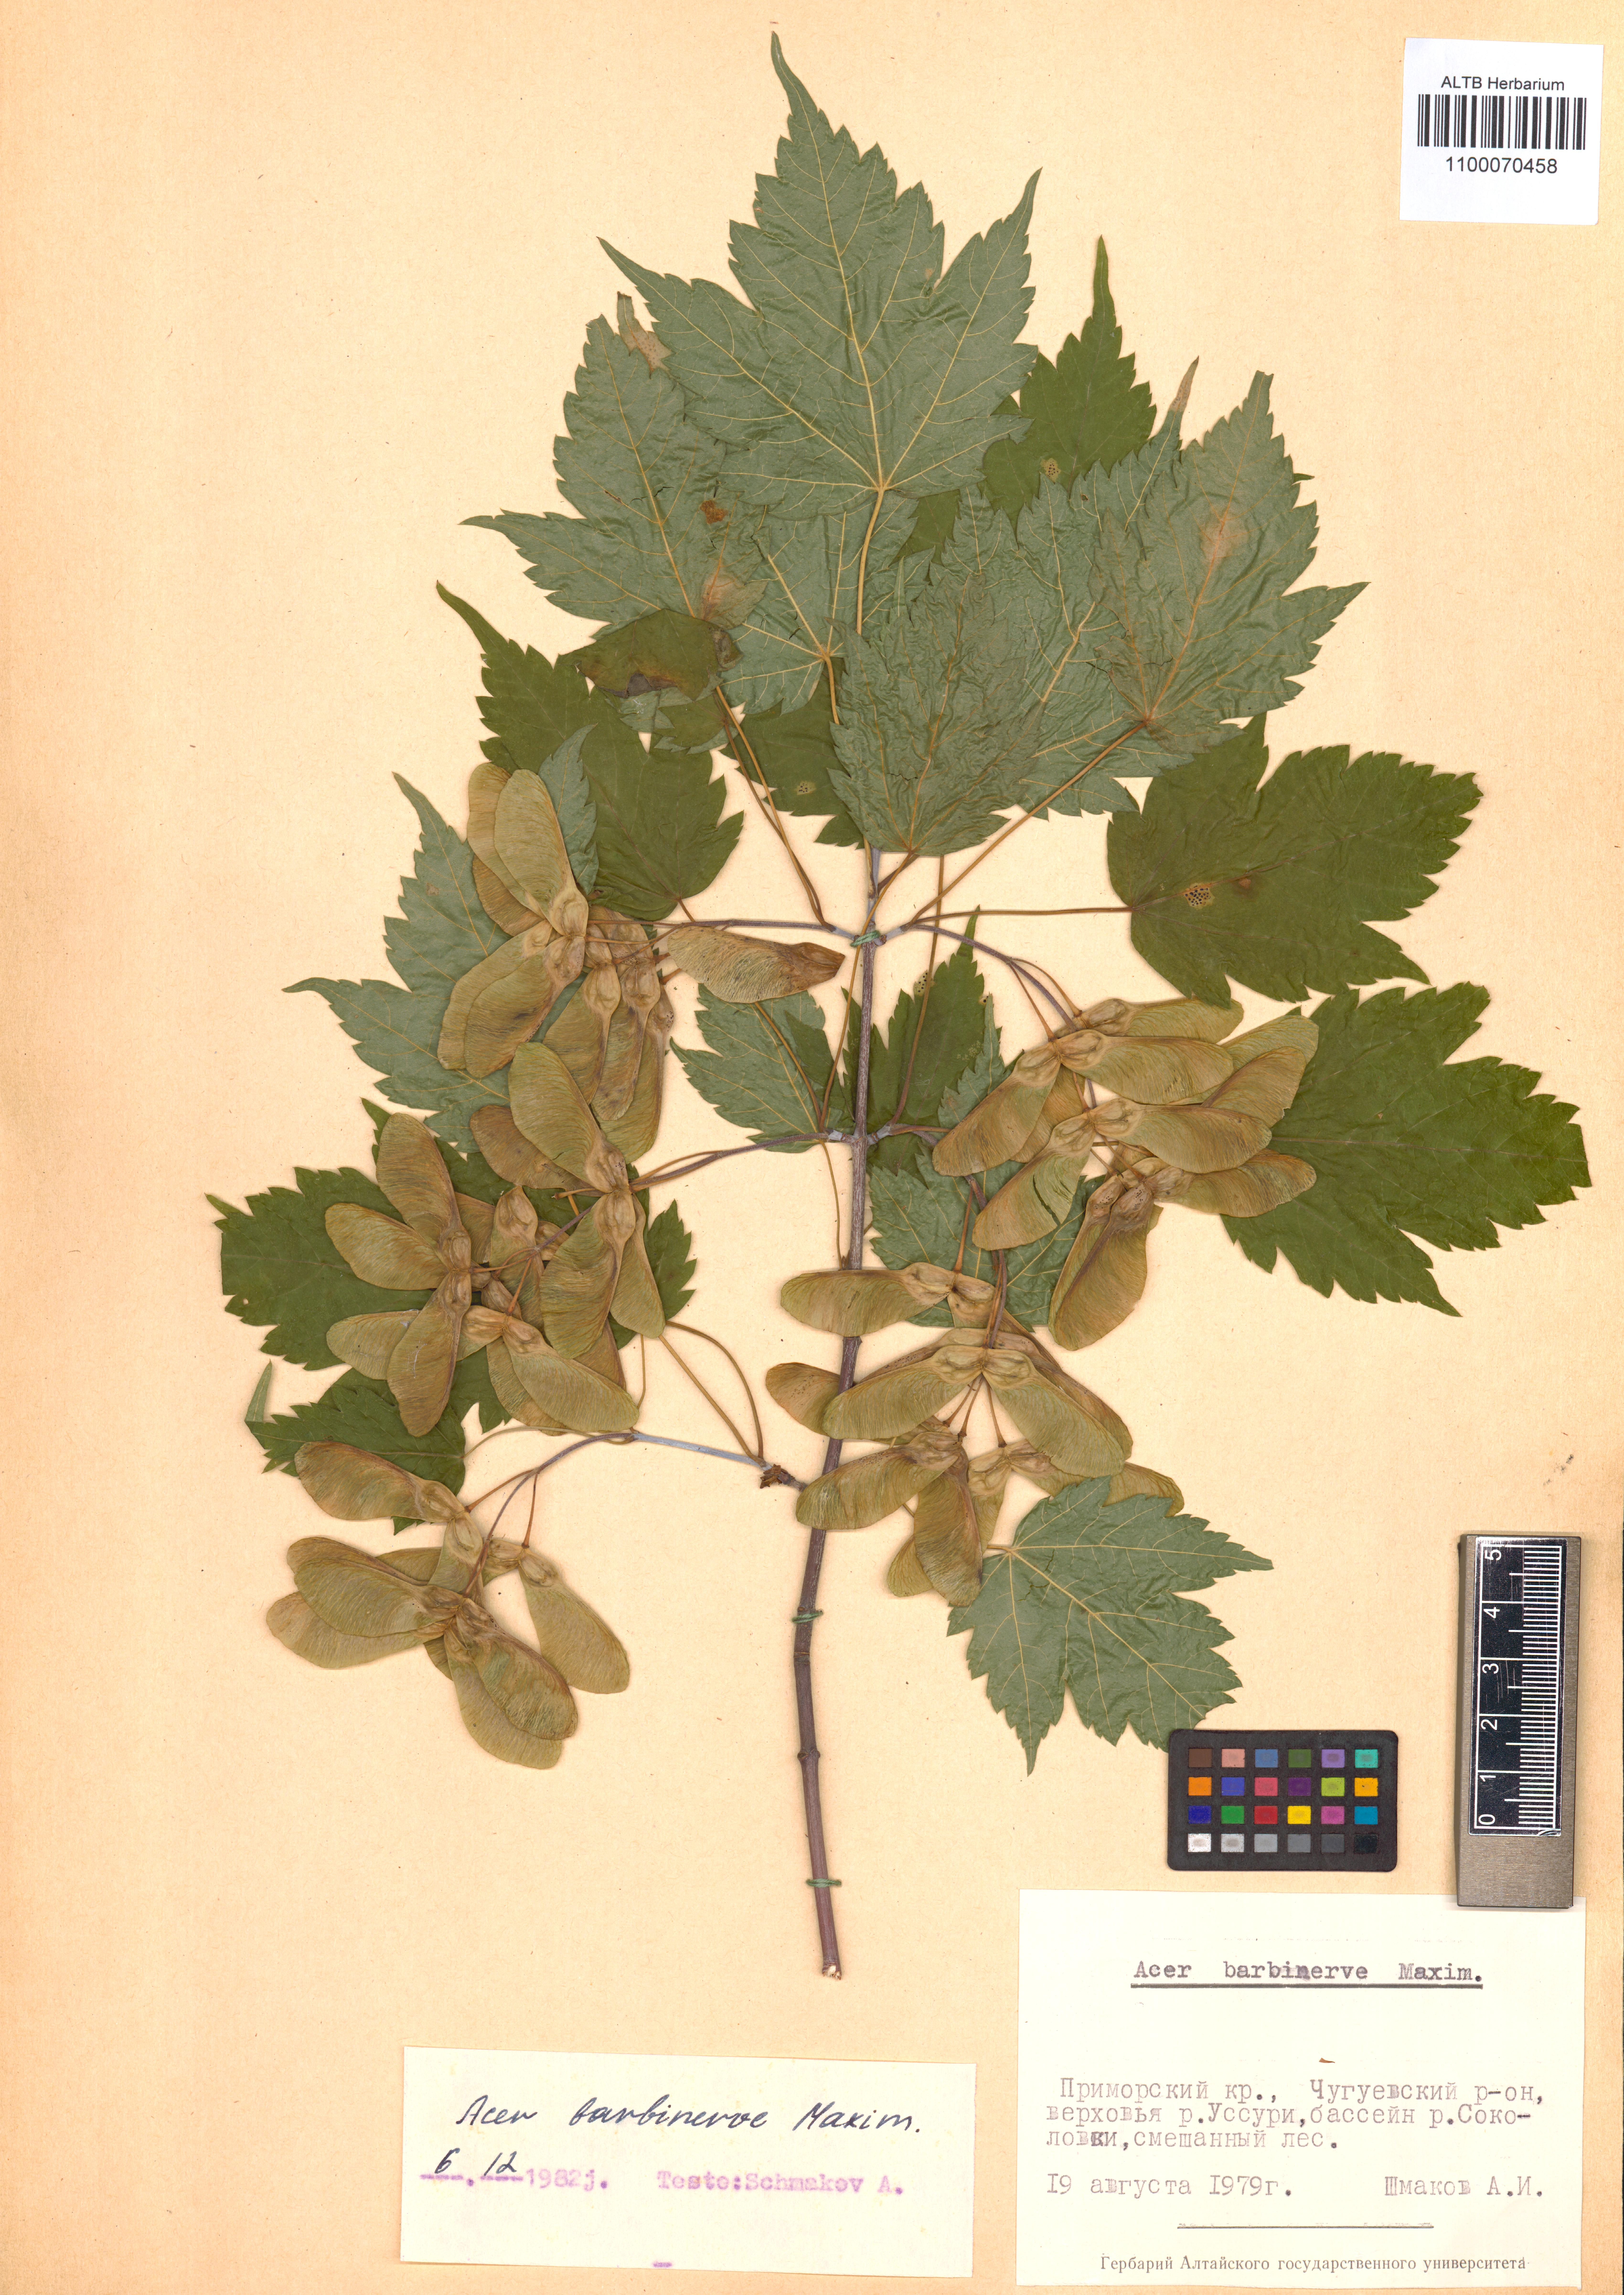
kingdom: Plantae
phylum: Tracheophyta
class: Magnoliopsida
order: Sapindales
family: Sapindaceae
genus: Acer
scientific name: Acer barbinerve
